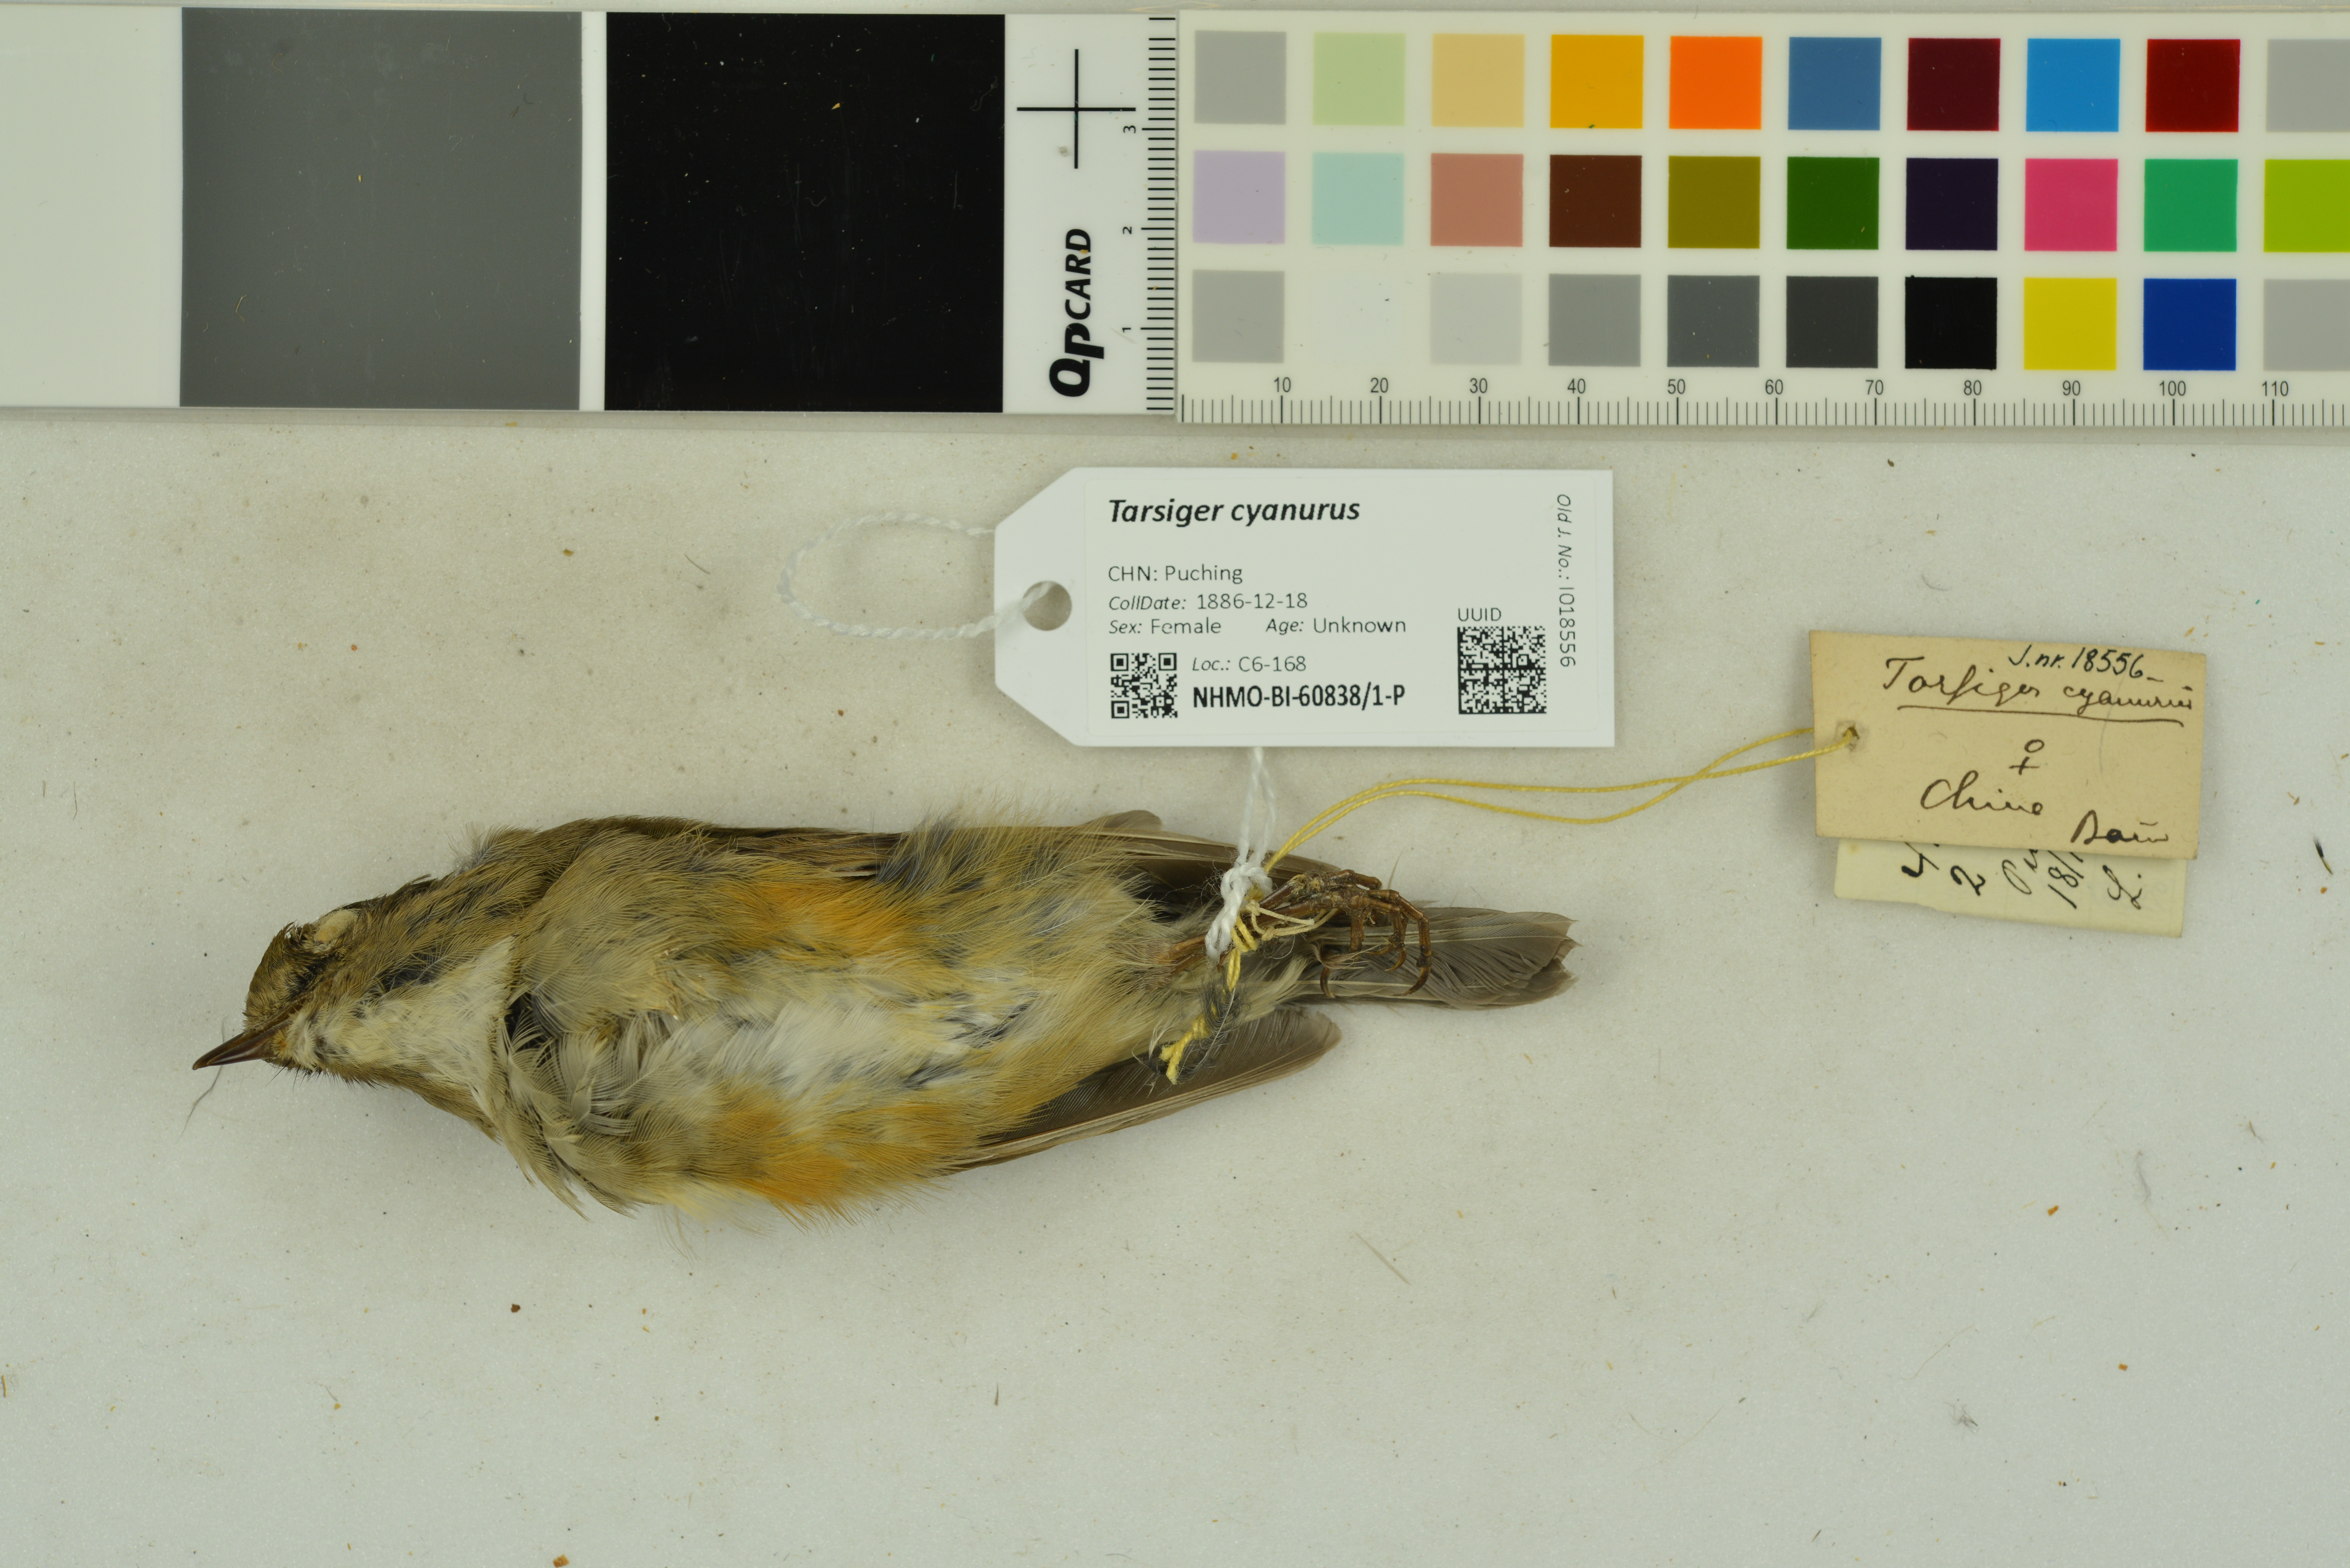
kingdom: Animalia
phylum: Chordata
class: Aves
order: Passeriformes
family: Muscicapidae
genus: Tarsiger
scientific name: Tarsiger cyanurus
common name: Red-flanked bluetail
